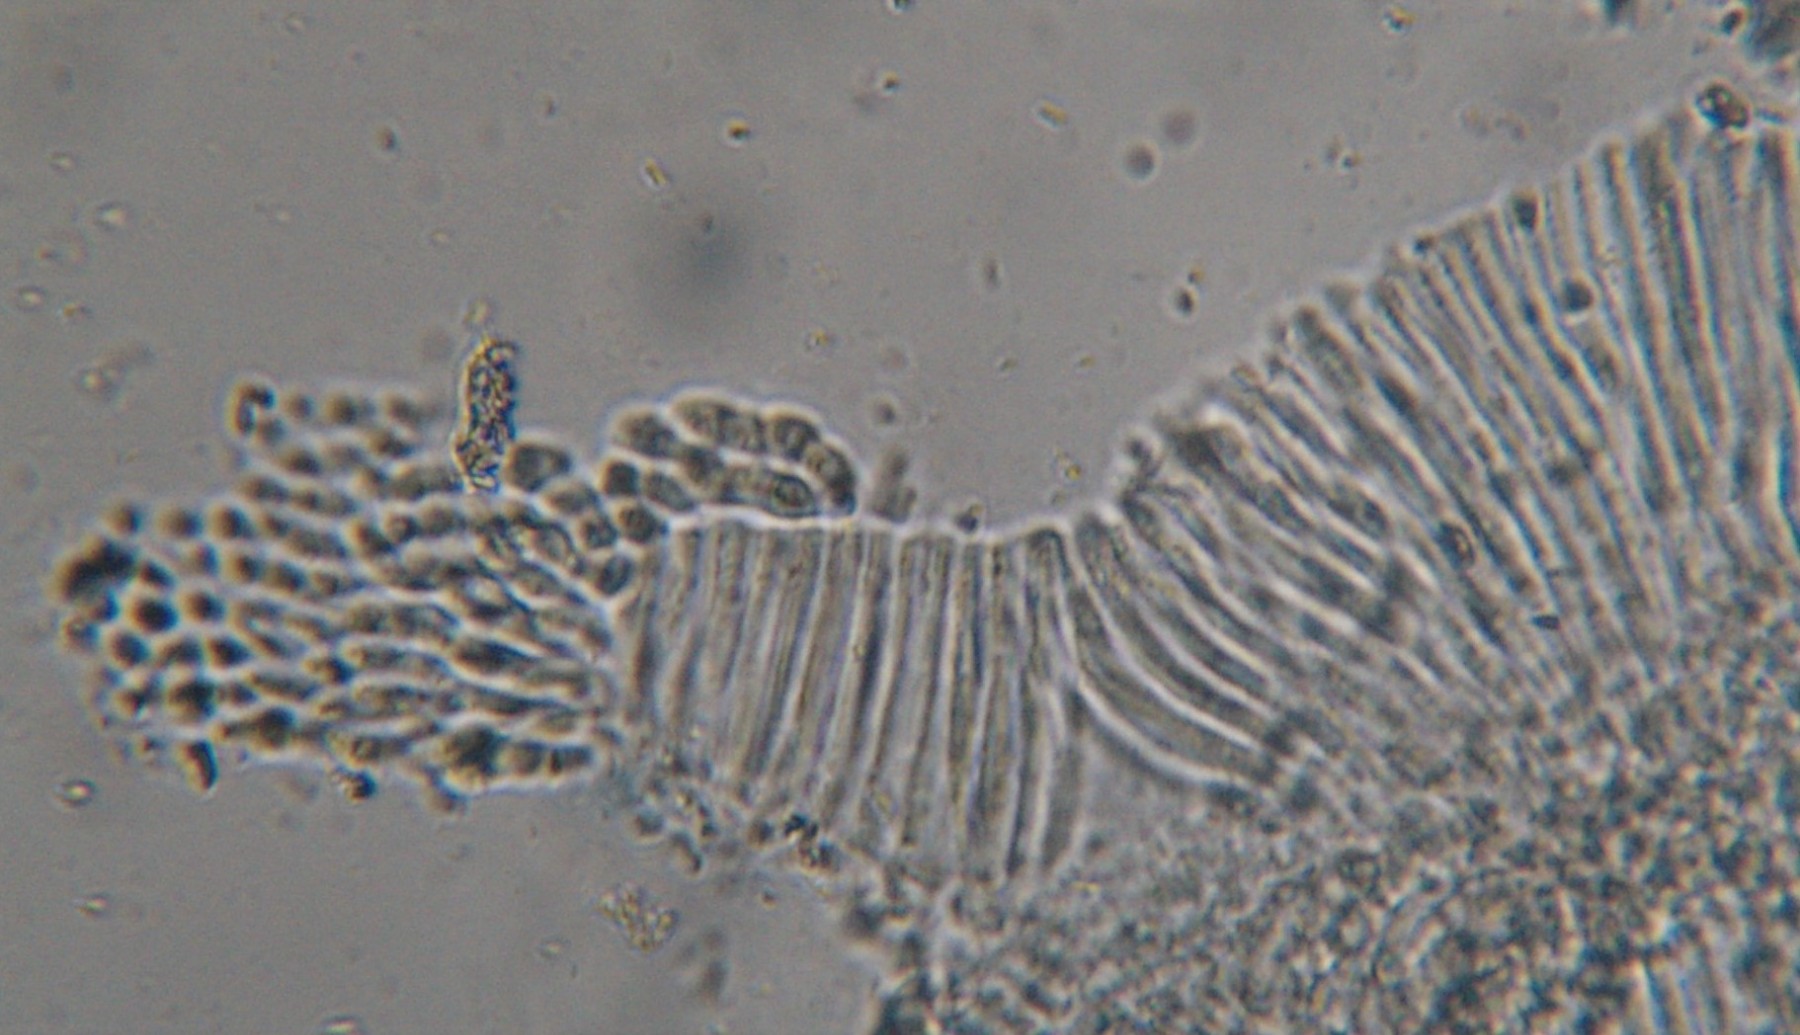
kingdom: Fungi
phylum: Ascomycota
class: Leotiomycetes
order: Rhytismatales
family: Rhytismataceae
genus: Lophodermium
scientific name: Lophodermium
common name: fureplet
